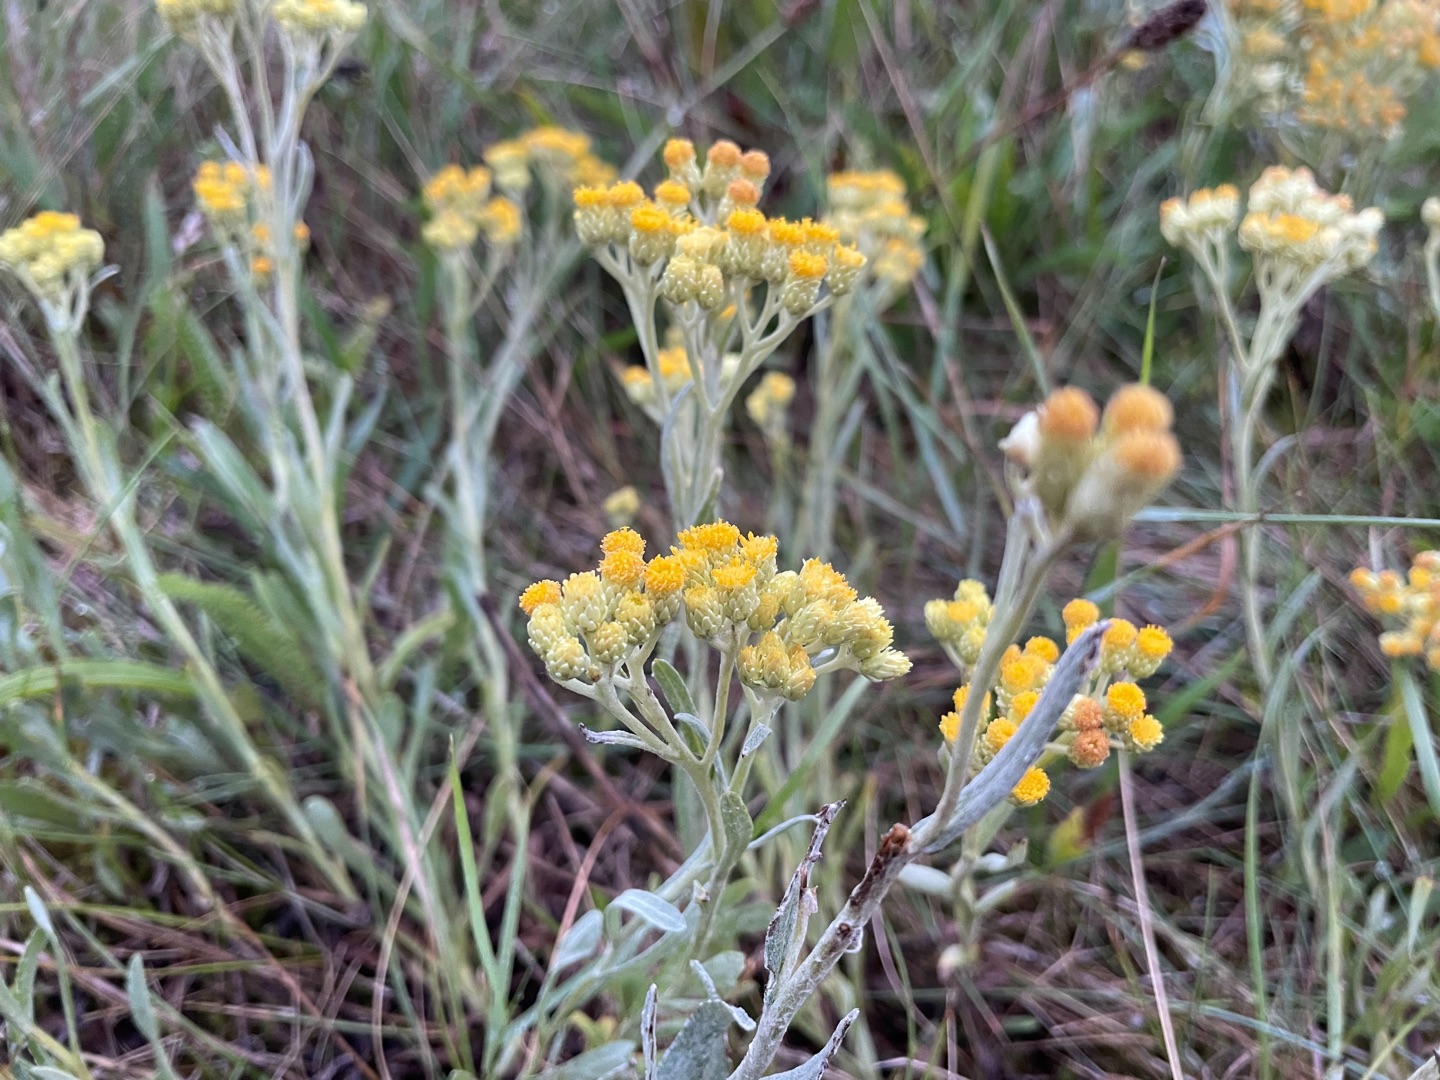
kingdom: Plantae
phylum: Tracheophyta
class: Magnoliopsida
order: Asterales
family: Asteraceae
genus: Helichrysum
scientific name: Helichrysum arenarium
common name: Gul evighedsblomst
